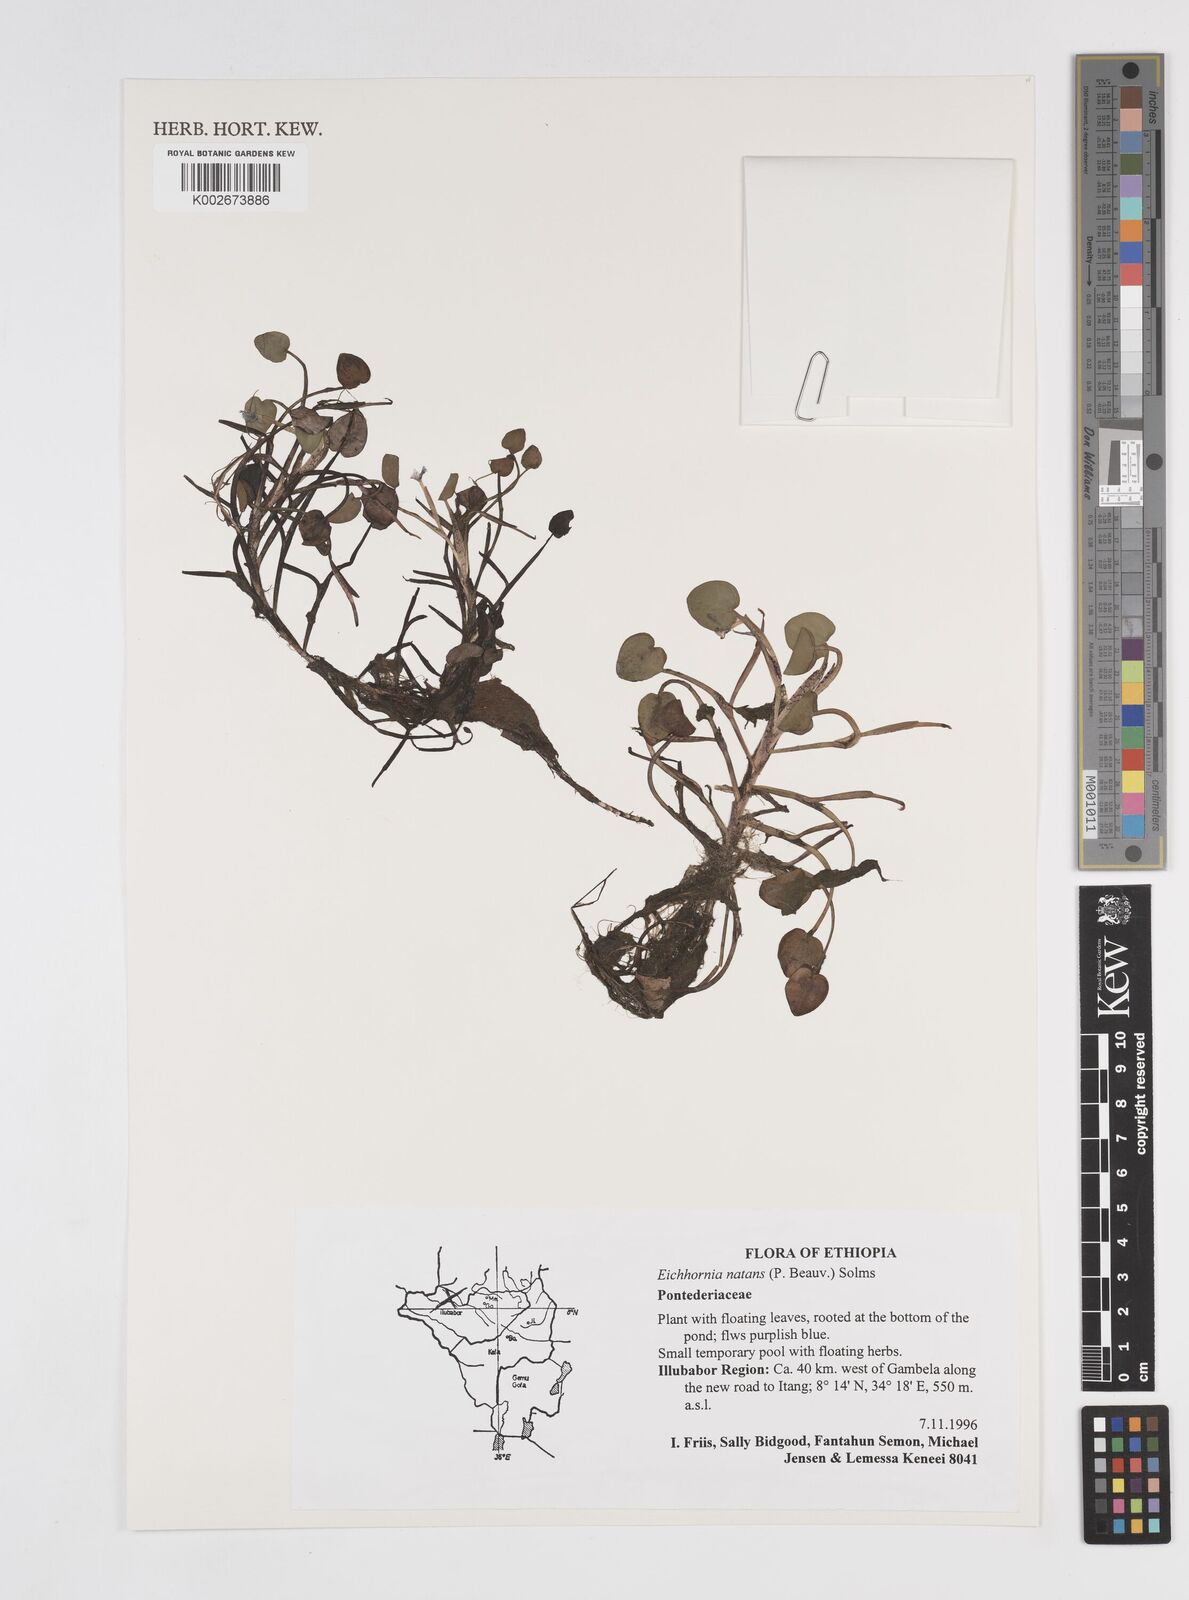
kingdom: Plantae
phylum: Tracheophyta
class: Liliopsida
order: Commelinales
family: Pontederiaceae
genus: Pontederia
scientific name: Pontederia diversifolia
